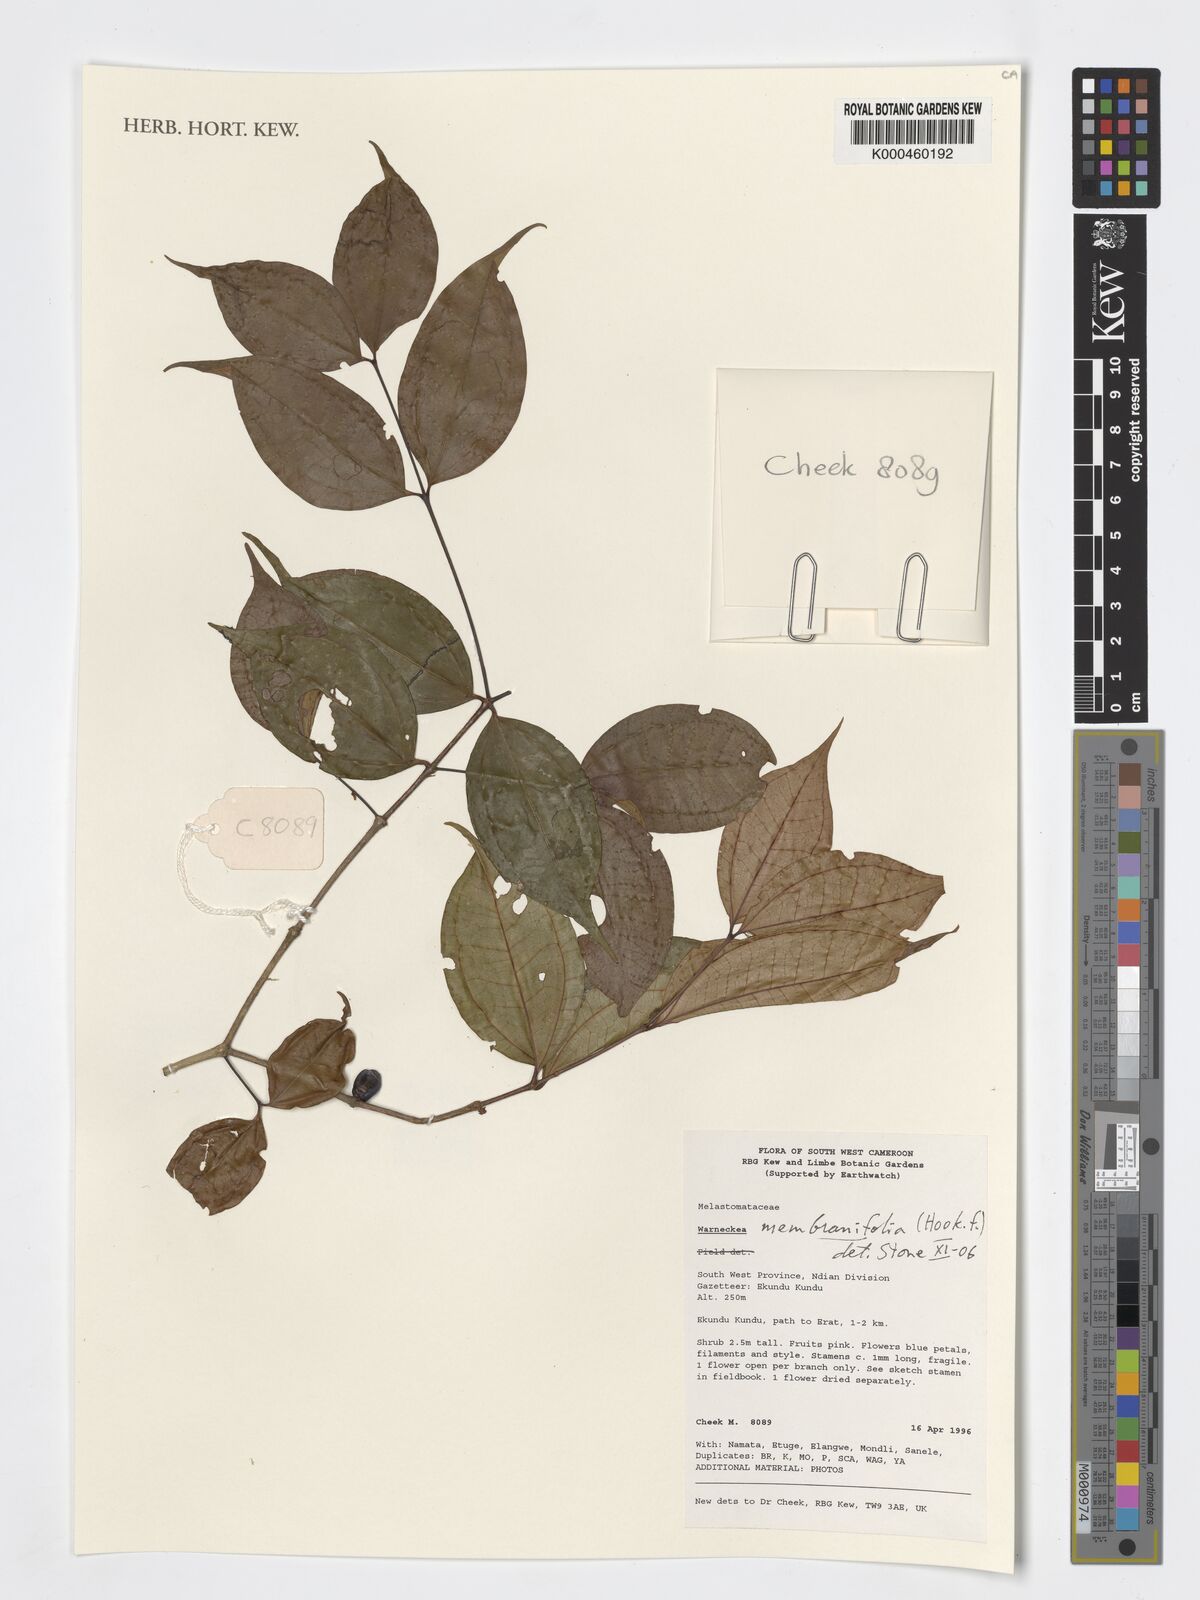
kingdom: Plantae
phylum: Tracheophyta
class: Magnoliopsida
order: Myrtales
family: Melastomataceae
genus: Warneckea
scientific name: Warneckea
